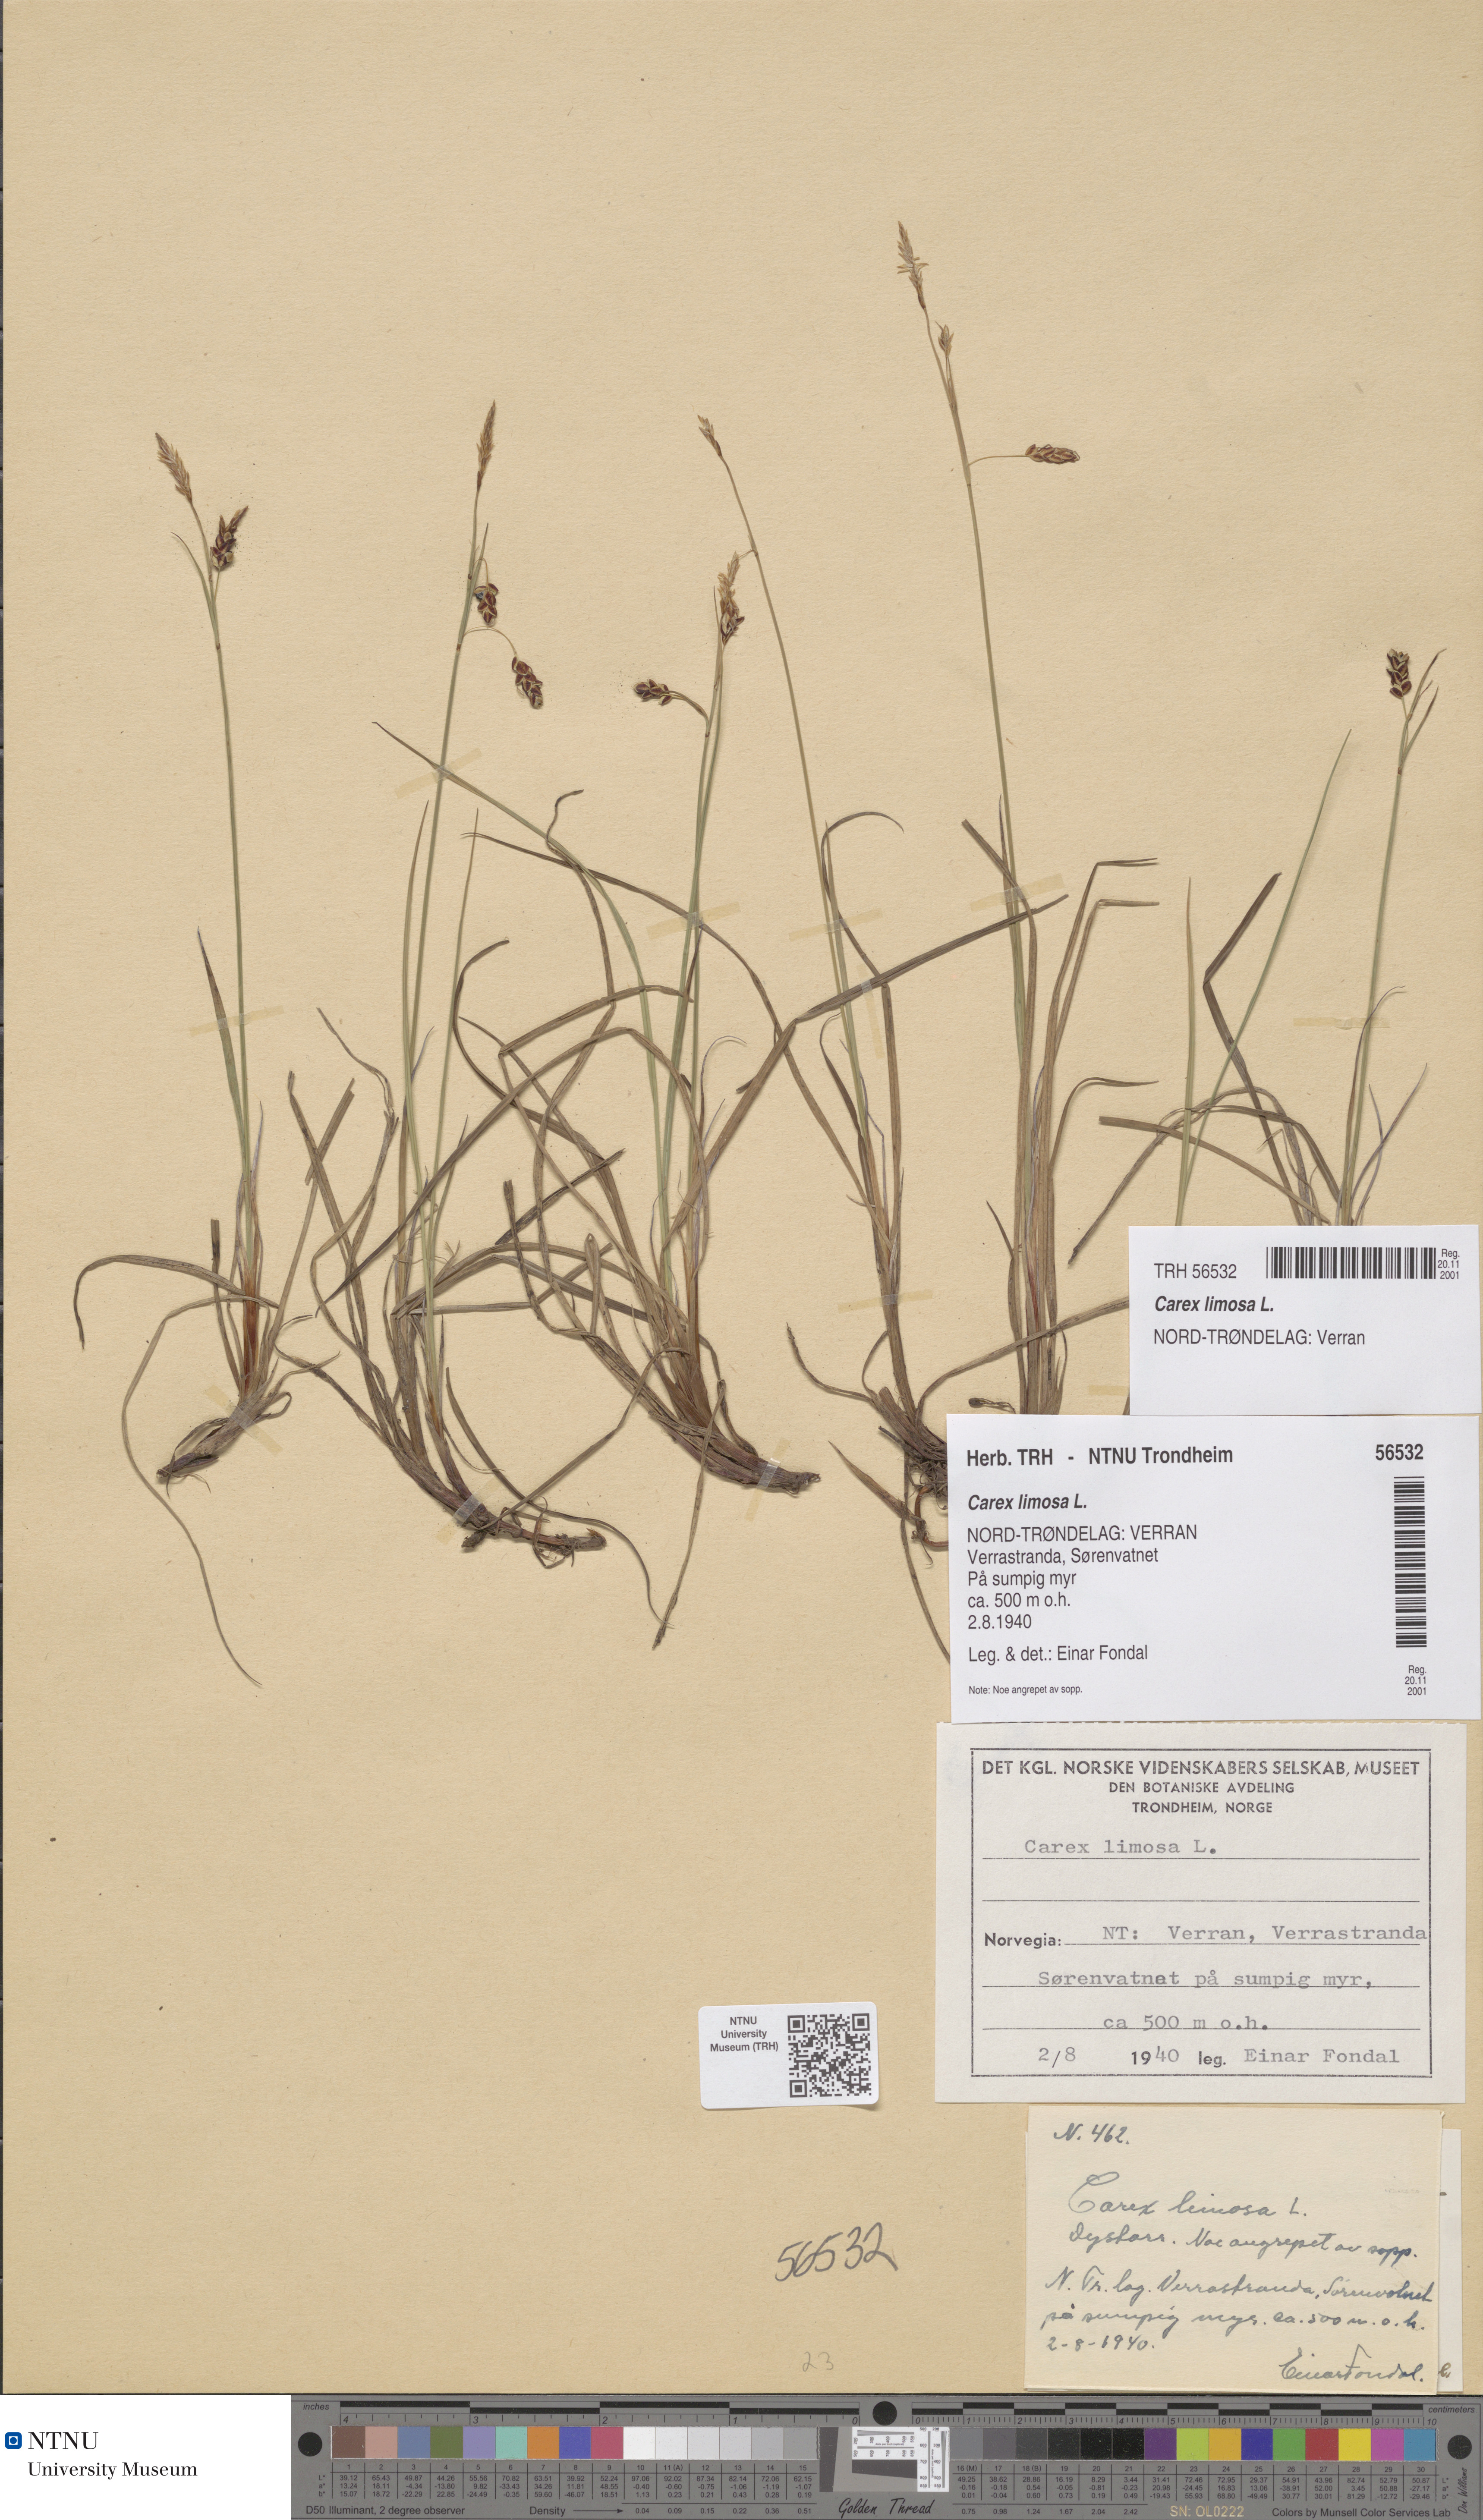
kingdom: Plantae
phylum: Tracheophyta
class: Liliopsida
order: Poales
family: Cyperaceae
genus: Carex
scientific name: Carex limosa
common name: Bog sedge
